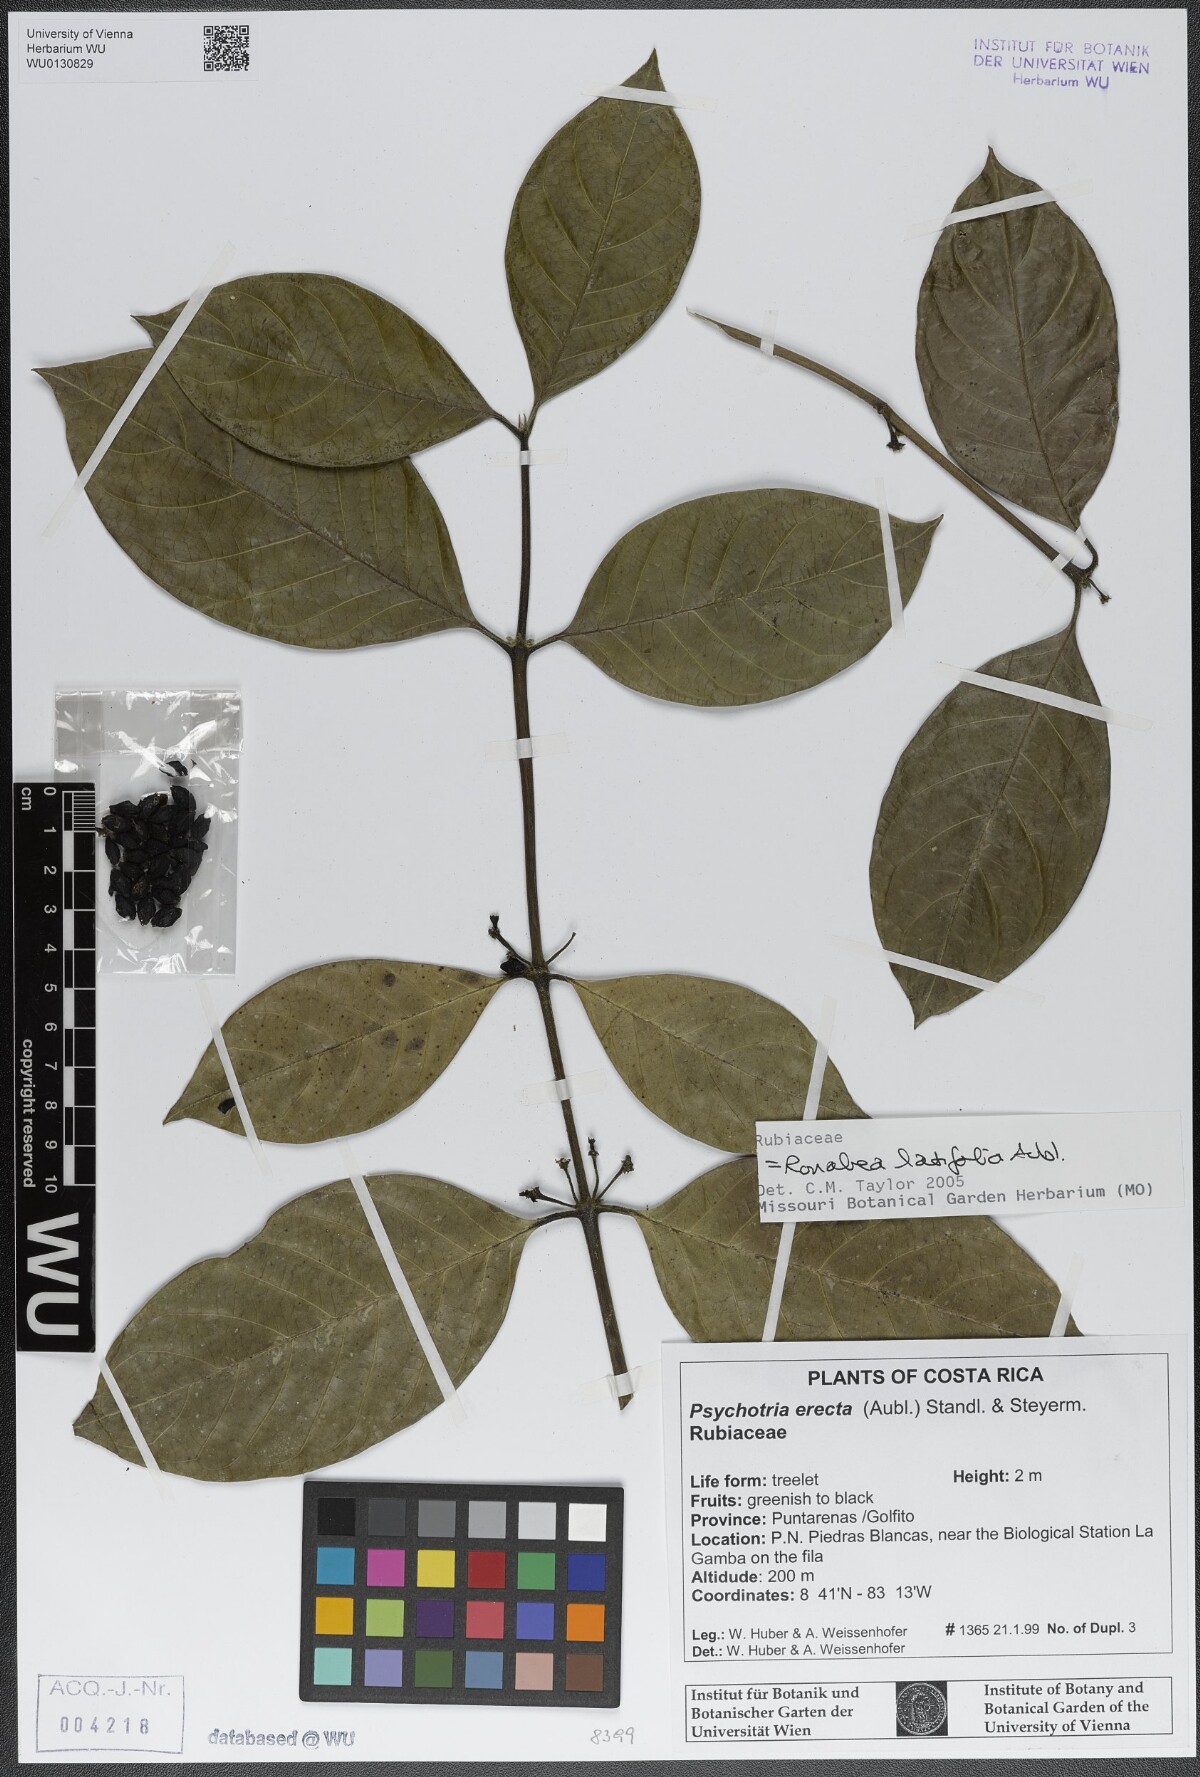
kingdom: Plantae
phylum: Tracheophyta
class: Magnoliopsida
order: Gentianales
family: Rubiaceae
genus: Ronabea
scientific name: Ronabea latifolia
